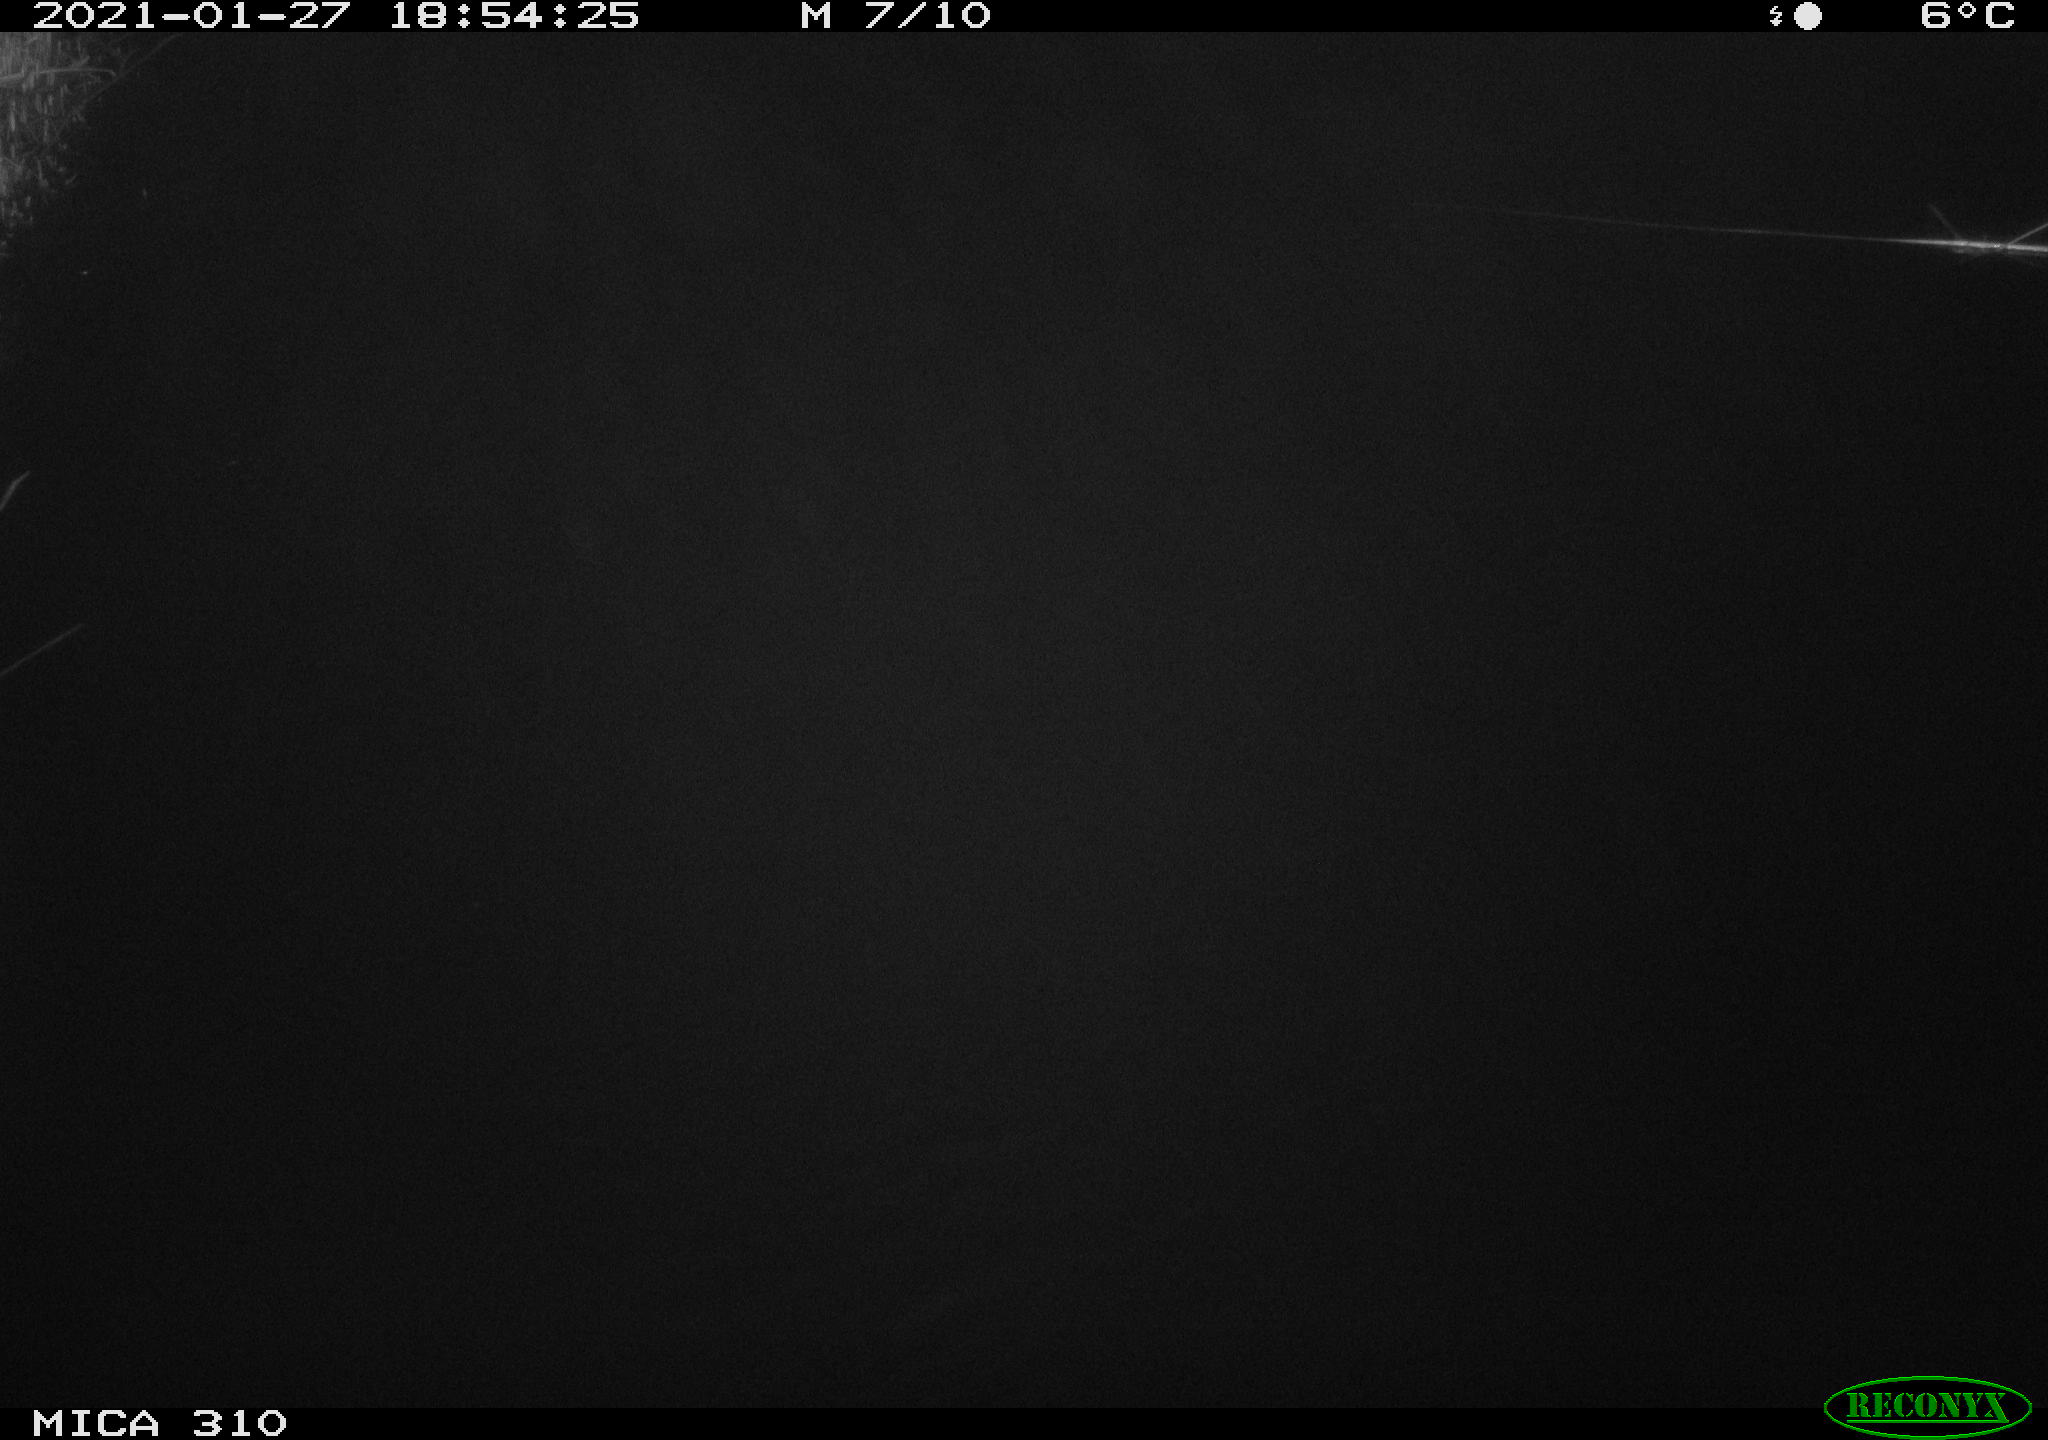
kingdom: Animalia
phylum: Chordata
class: Aves
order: Gruiformes
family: Rallidae
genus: Fulica
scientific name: Fulica atra
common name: Eurasian coot
